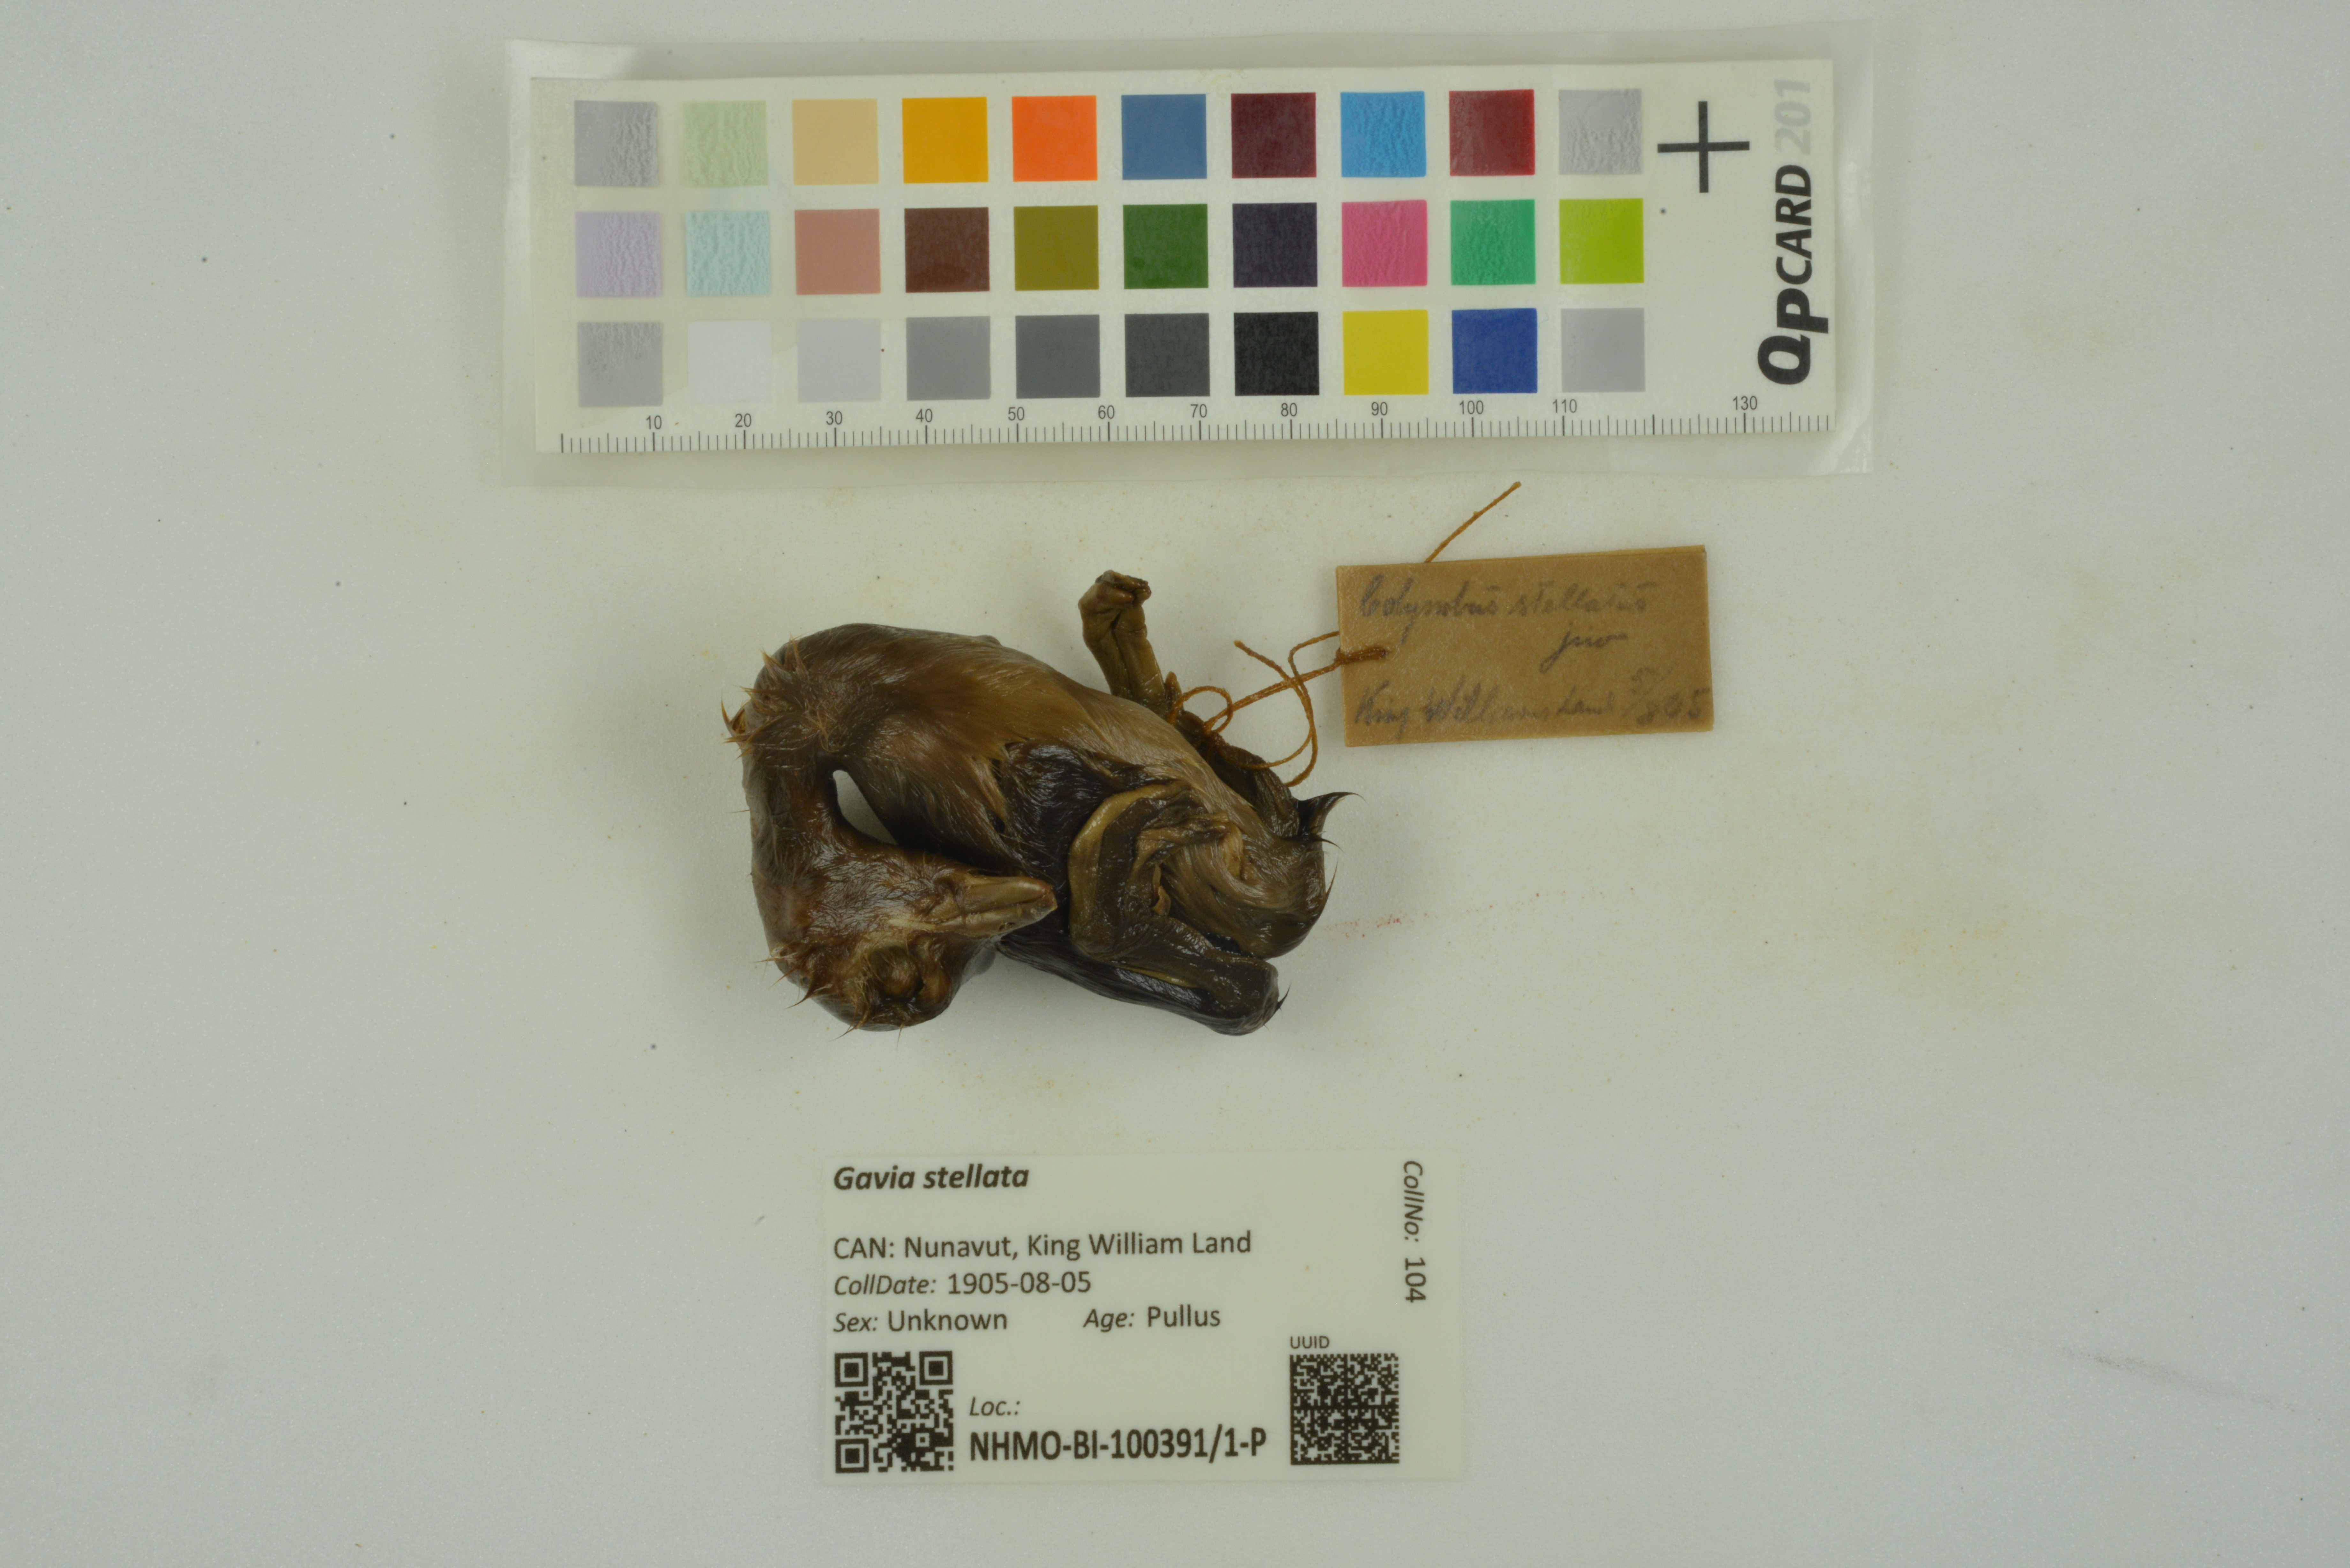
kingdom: Animalia
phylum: Chordata
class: Aves
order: Gaviiformes
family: Gaviidae
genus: Gavia
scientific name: Gavia stellata
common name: Red-throated loon
